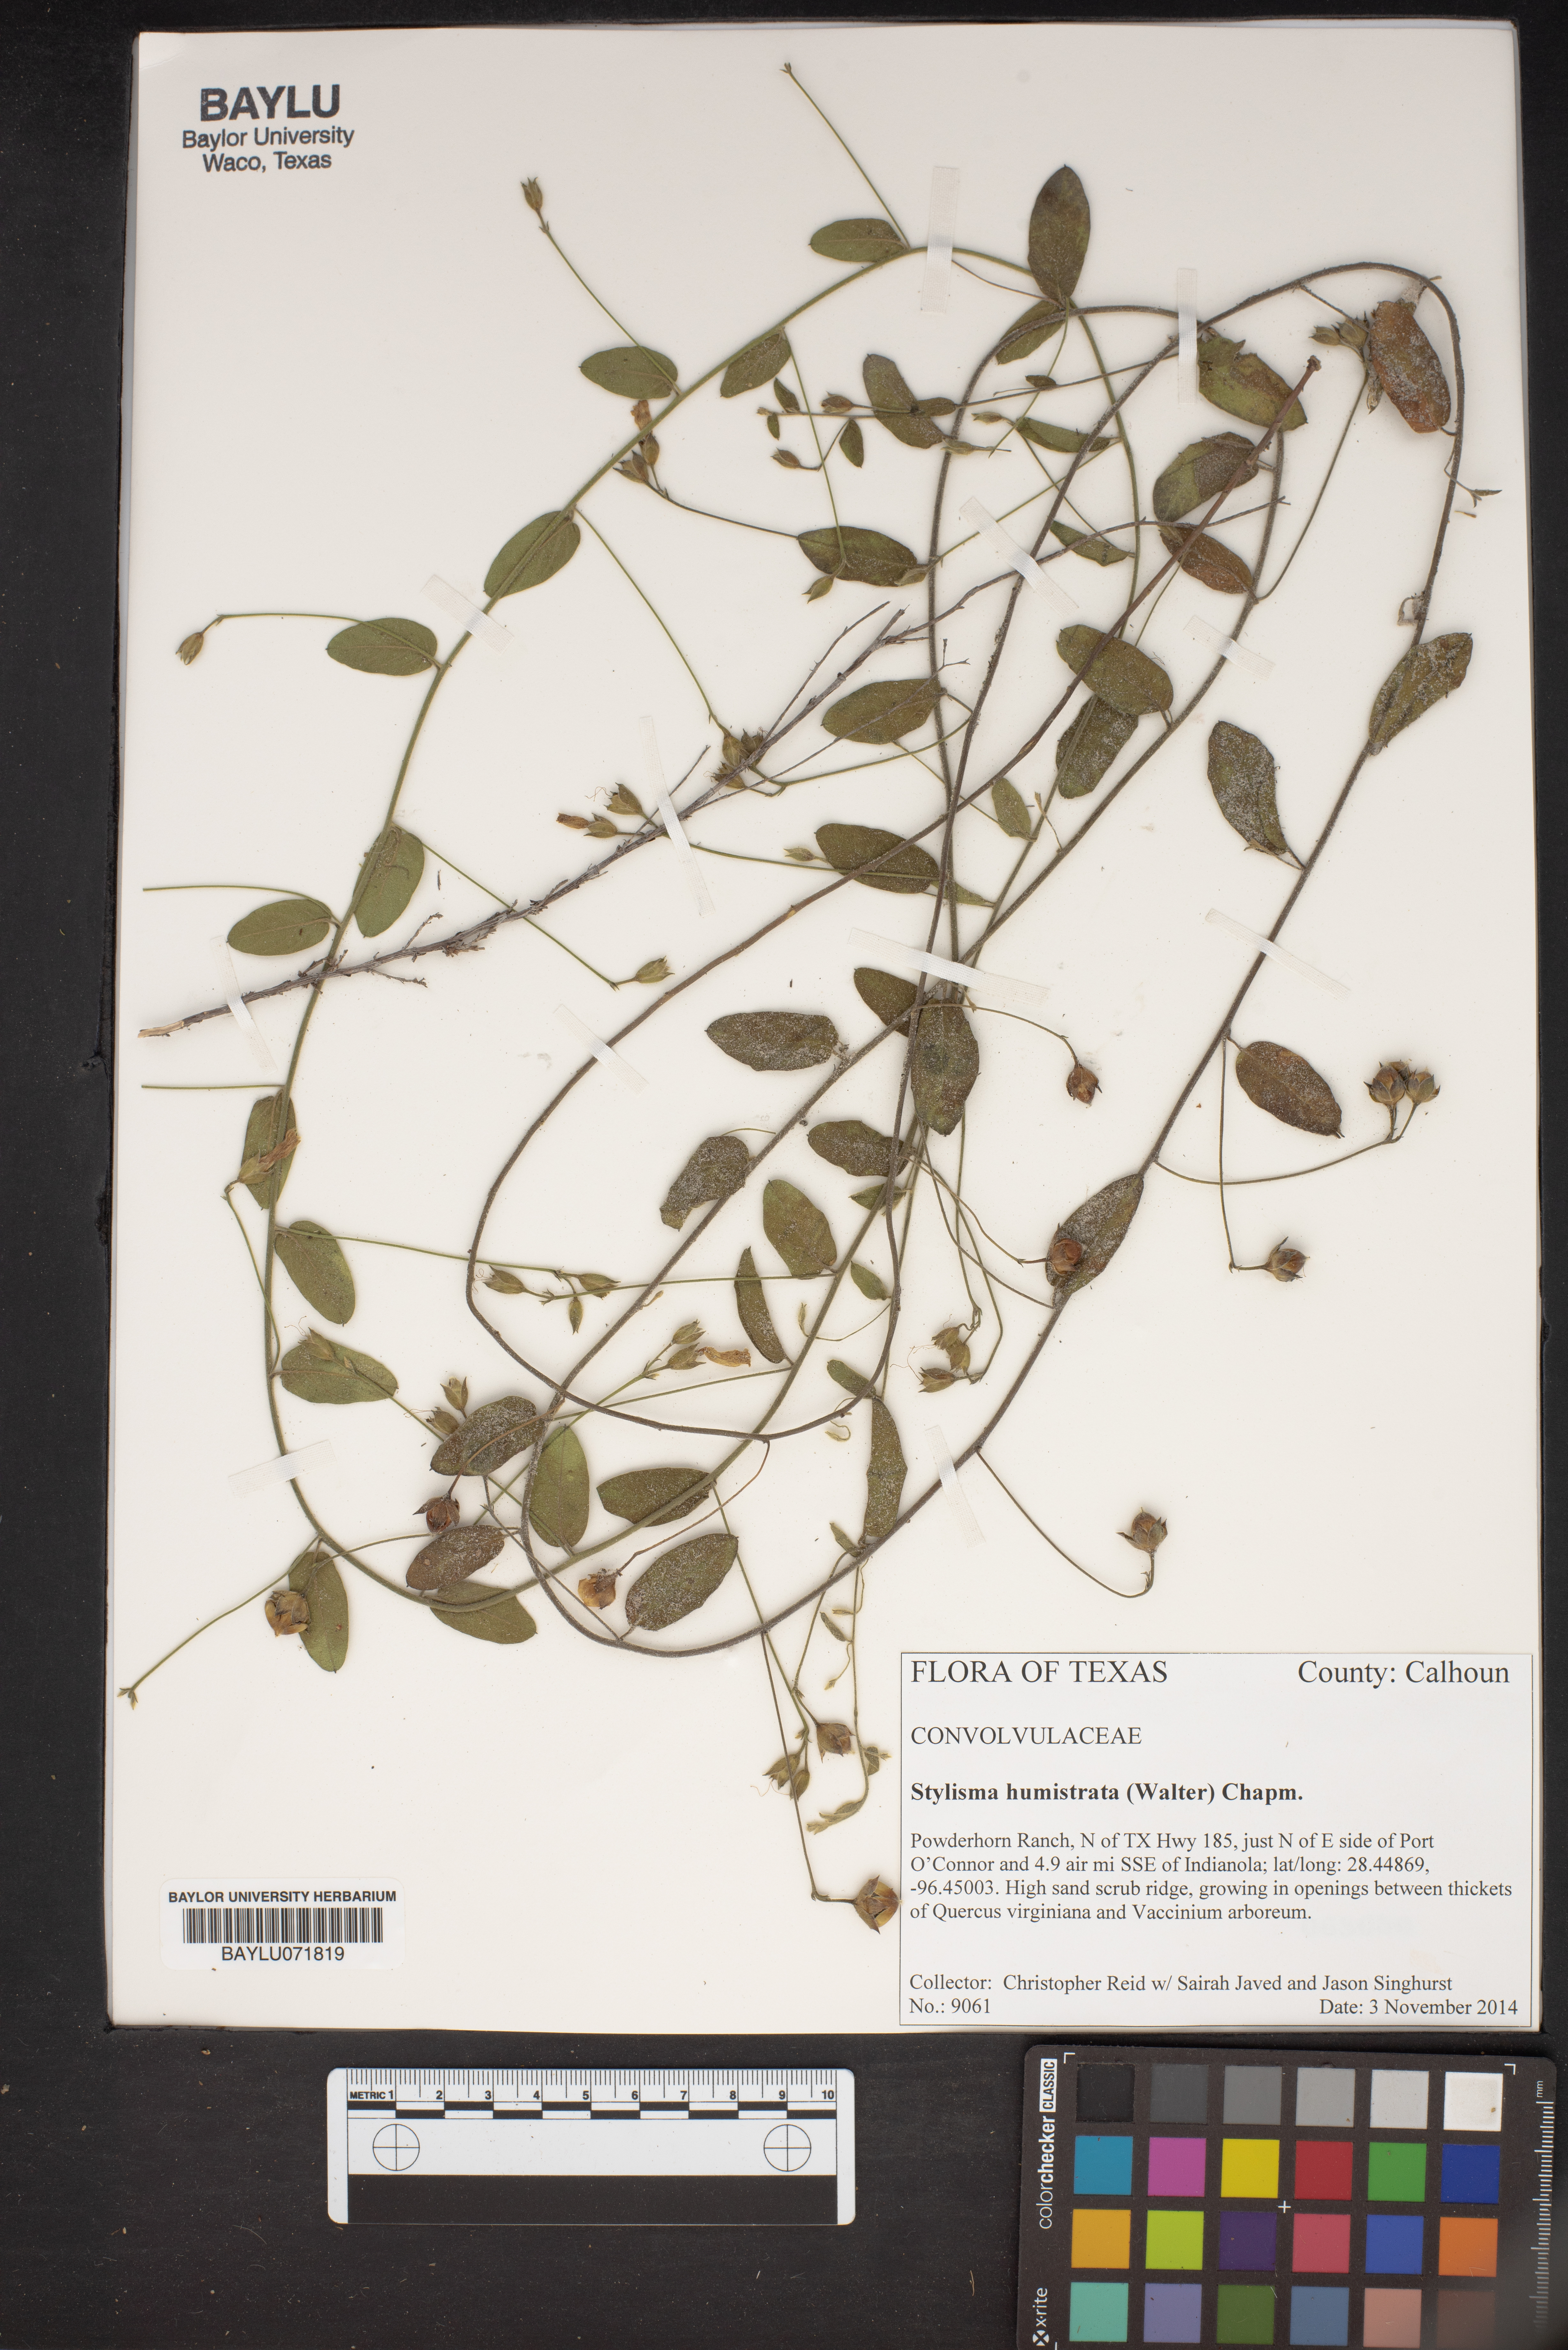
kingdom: Plantae
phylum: Tracheophyta
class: Magnoliopsida
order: Solanales
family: Convolvulaceae
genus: Stylisma
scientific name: Stylisma humistrata
